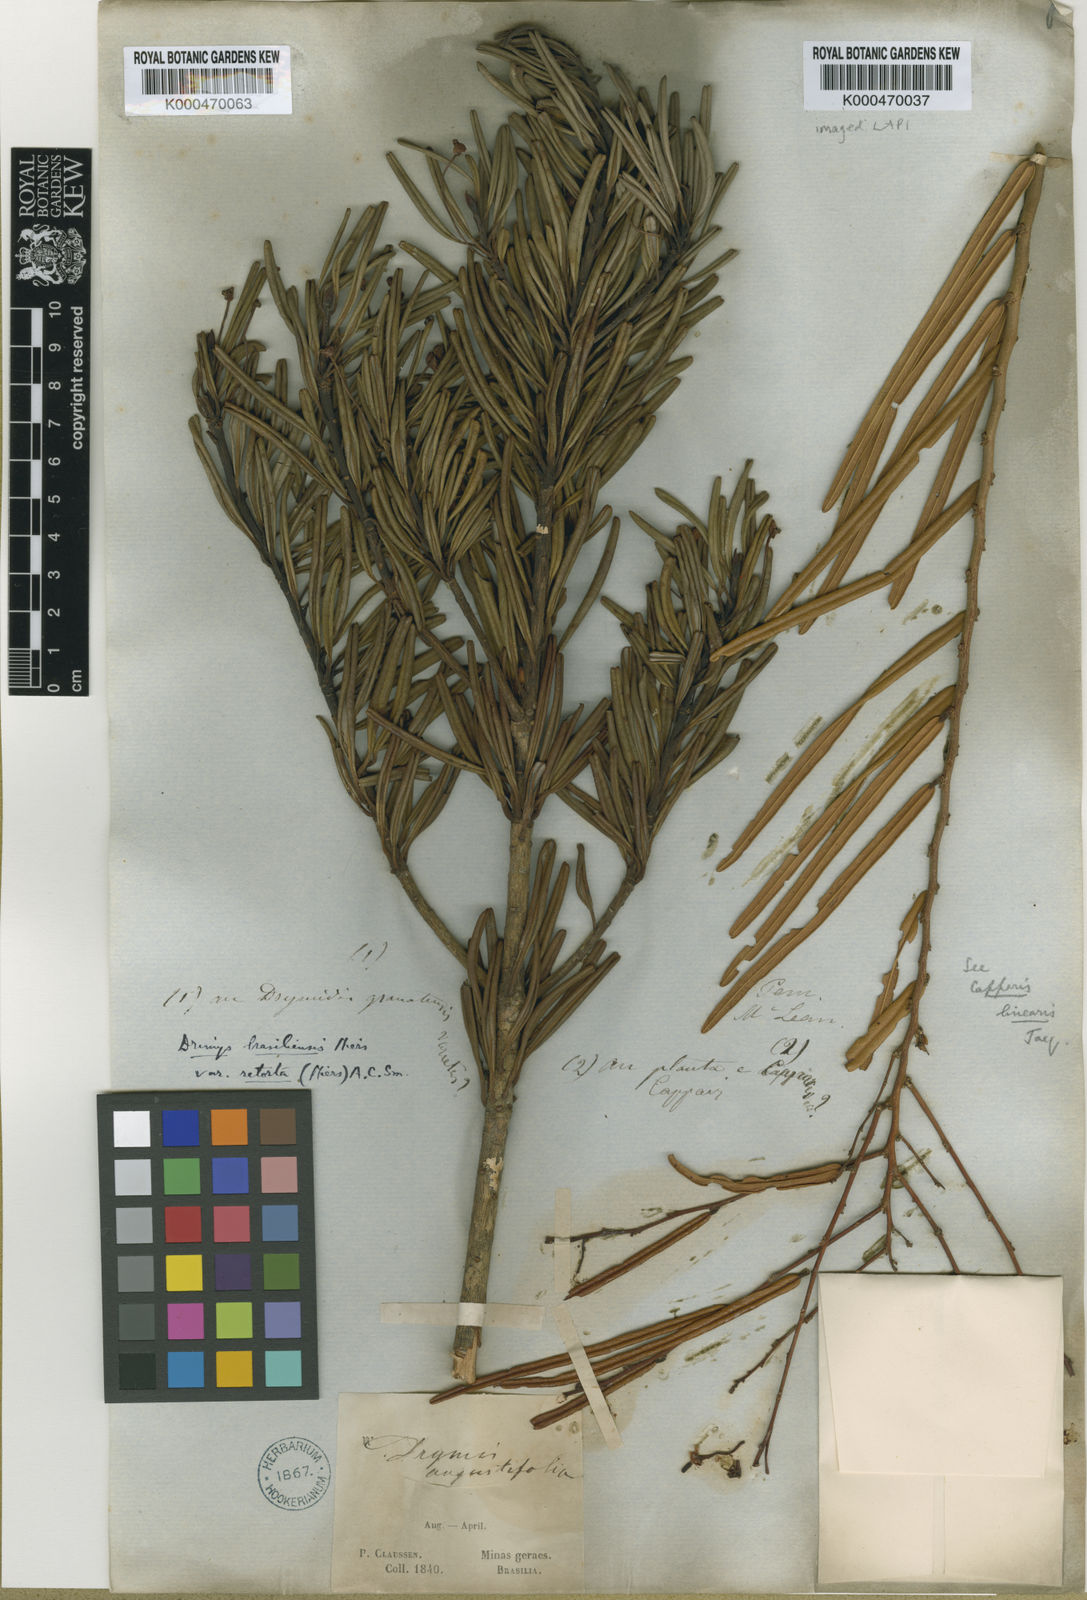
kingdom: Plantae
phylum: Tracheophyta
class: Magnoliopsida
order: Canellales
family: Winteraceae
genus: Drimys
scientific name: Drimys brasiliensis
